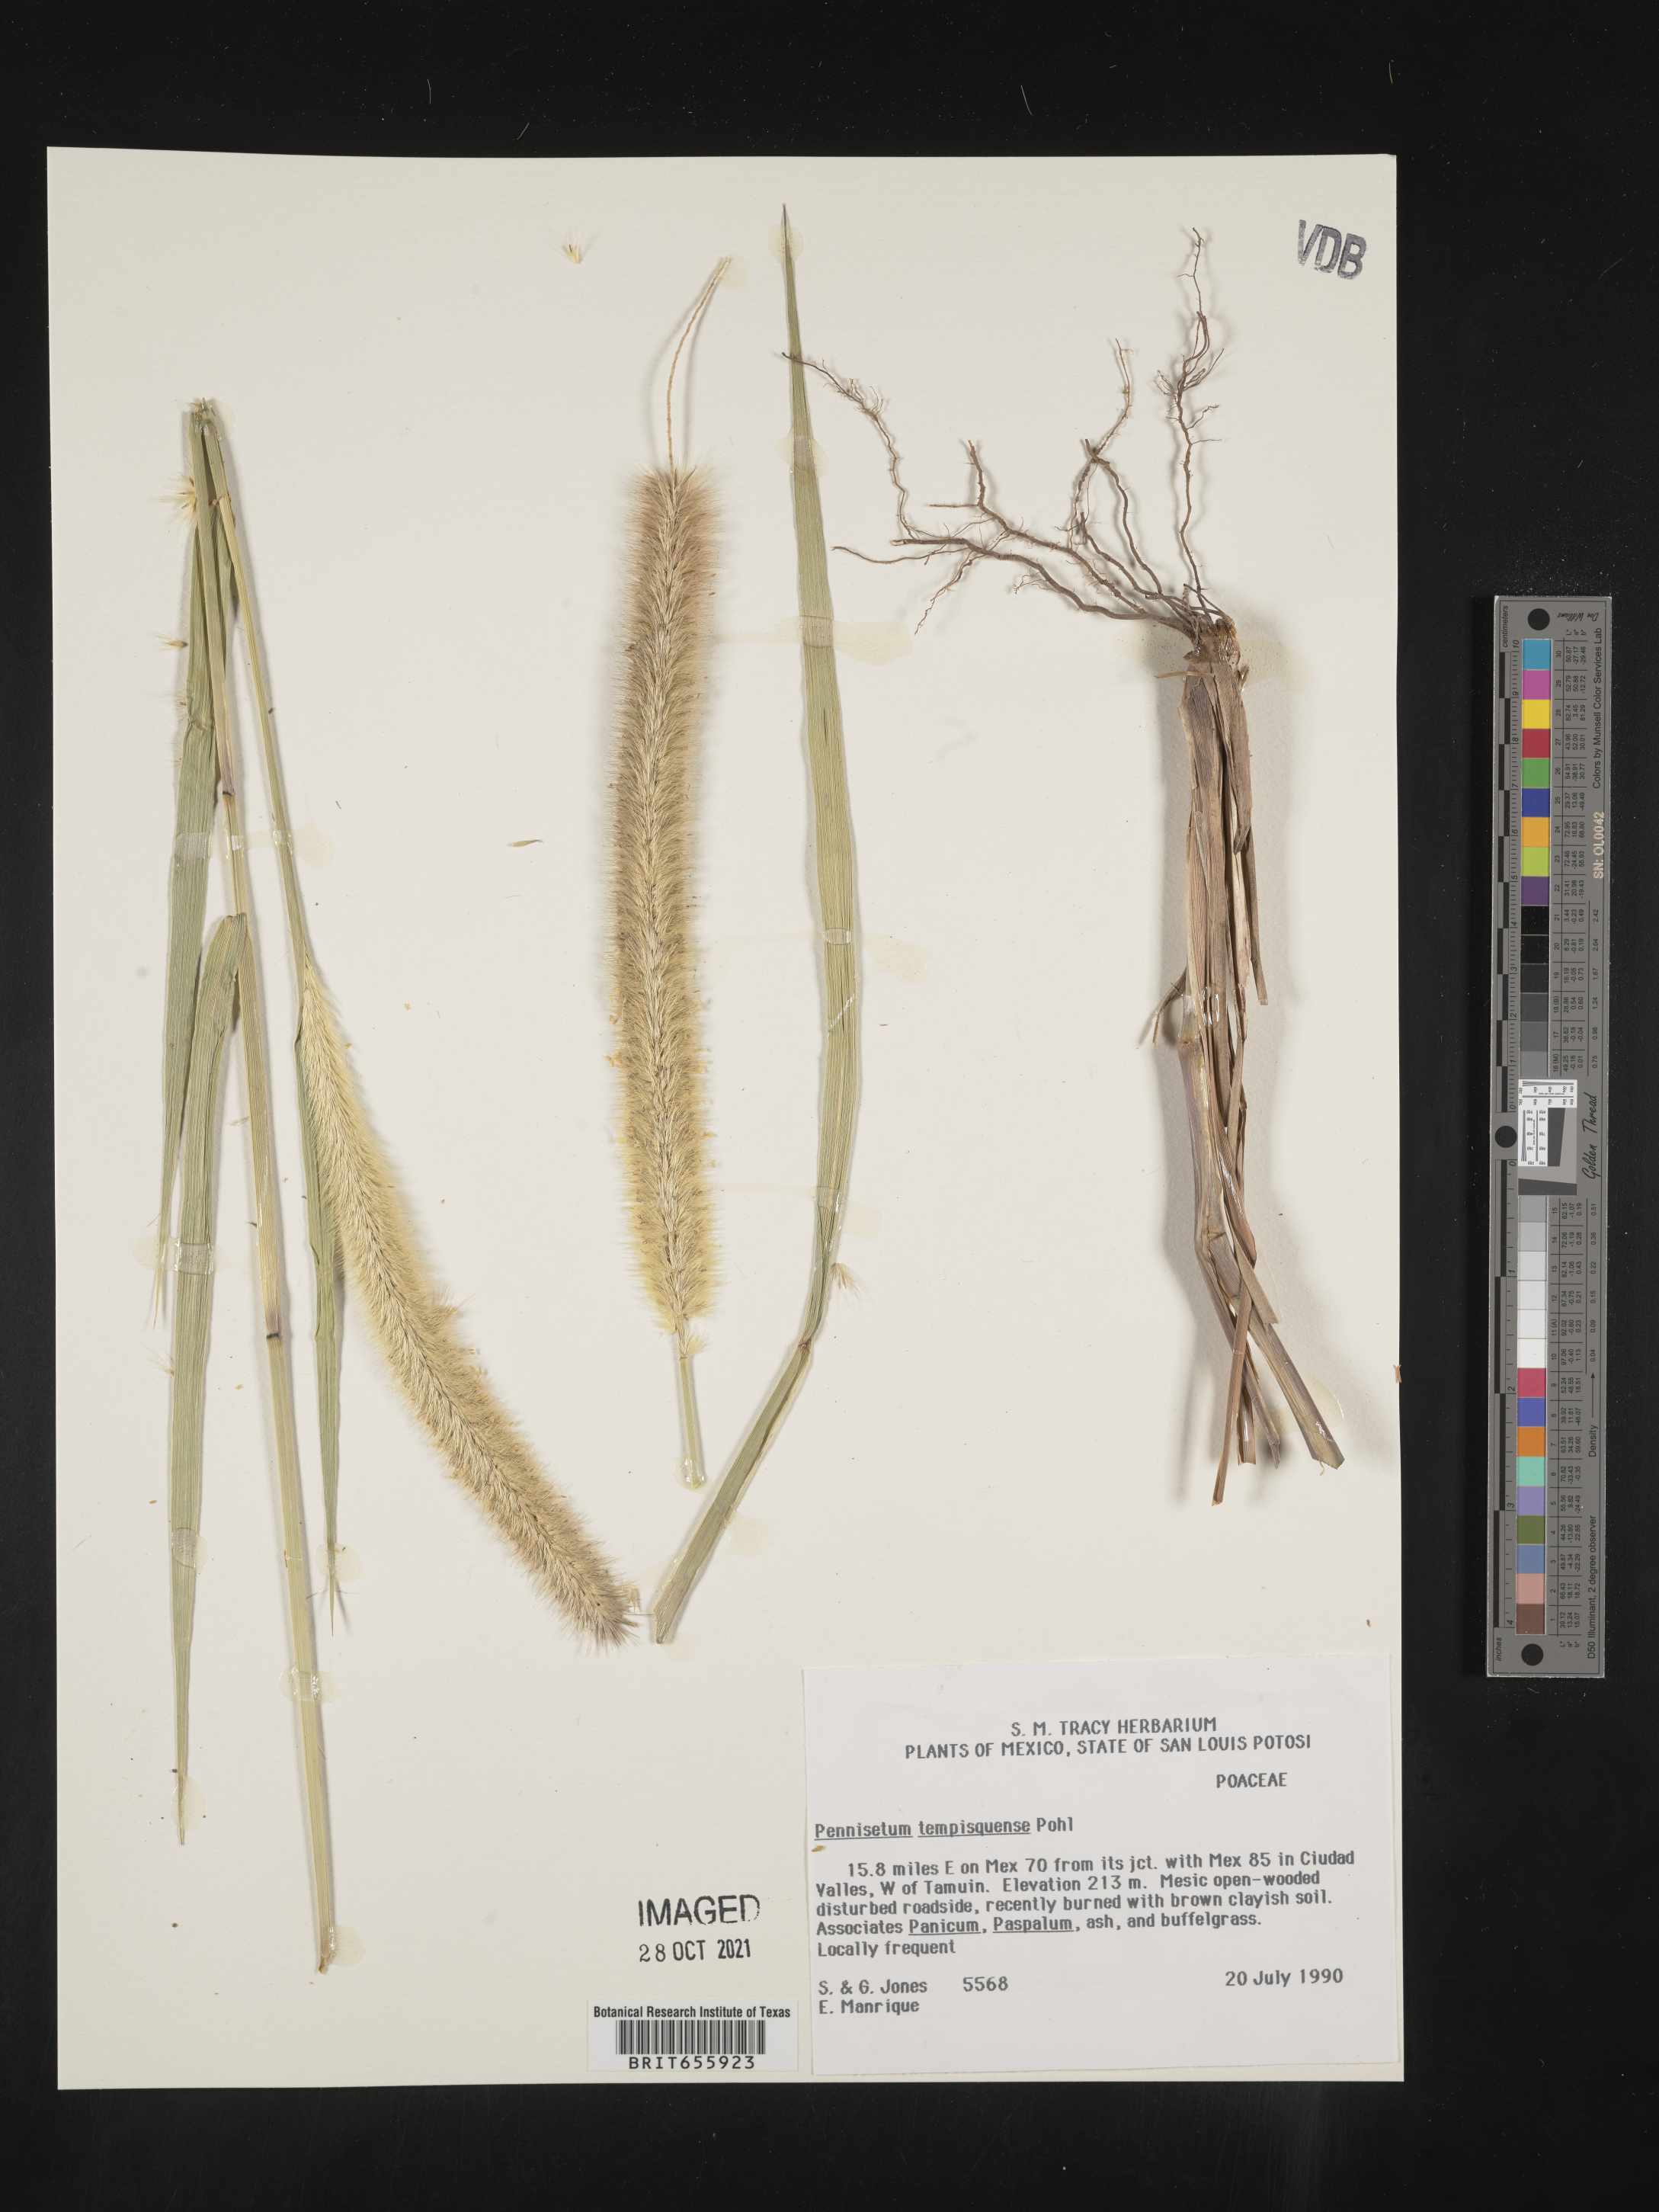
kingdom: Plantae
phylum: Tracheophyta
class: Liliopsida
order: Poales
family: Poaceae
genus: Cenchrus
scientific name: Cenchrus Pennisetum spec
